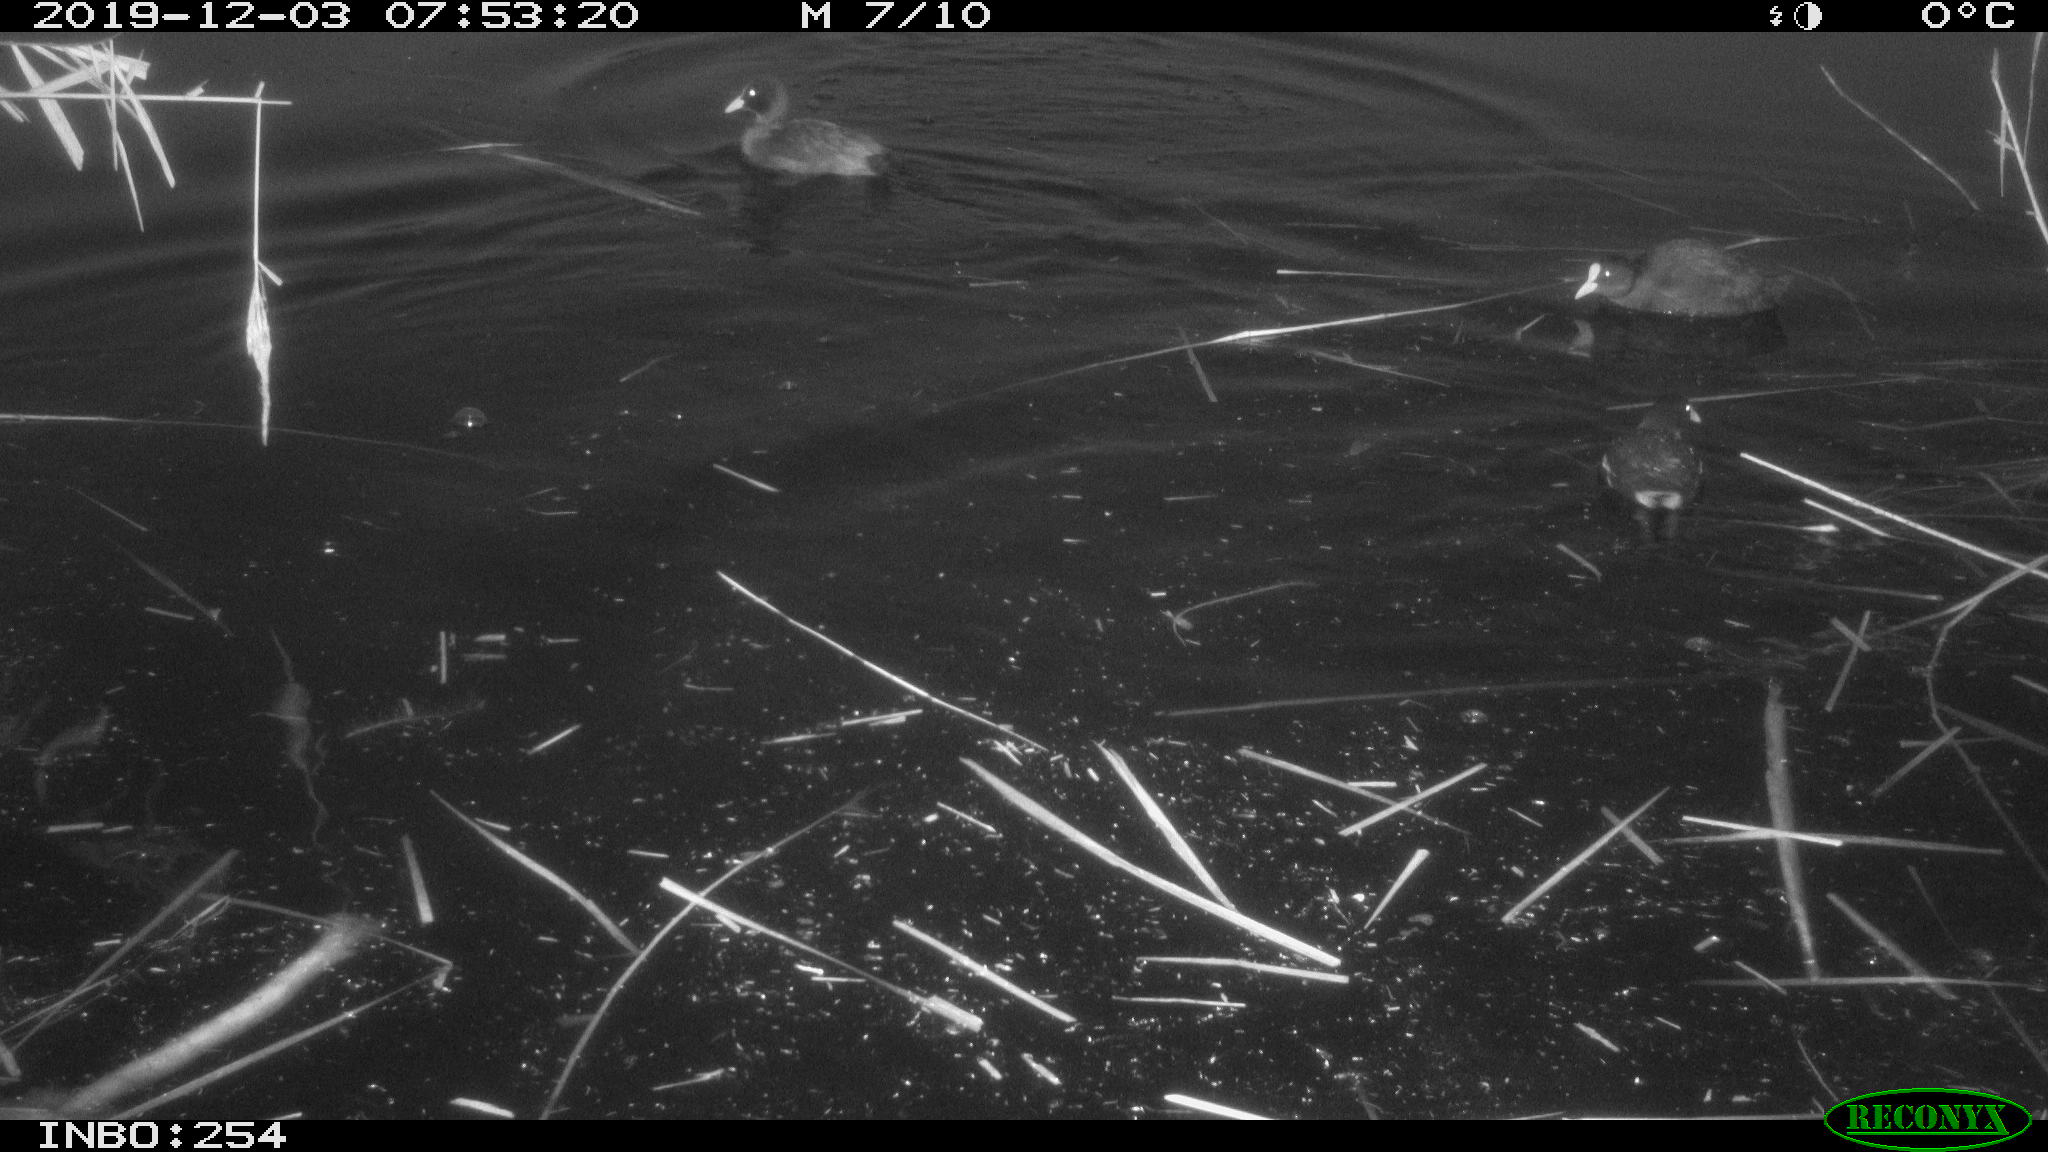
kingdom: Animalia
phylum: Chordata
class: Aves
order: Gruiformes
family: Rallidae
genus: Fulica
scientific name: Fulica atra
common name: Eurasian coot
